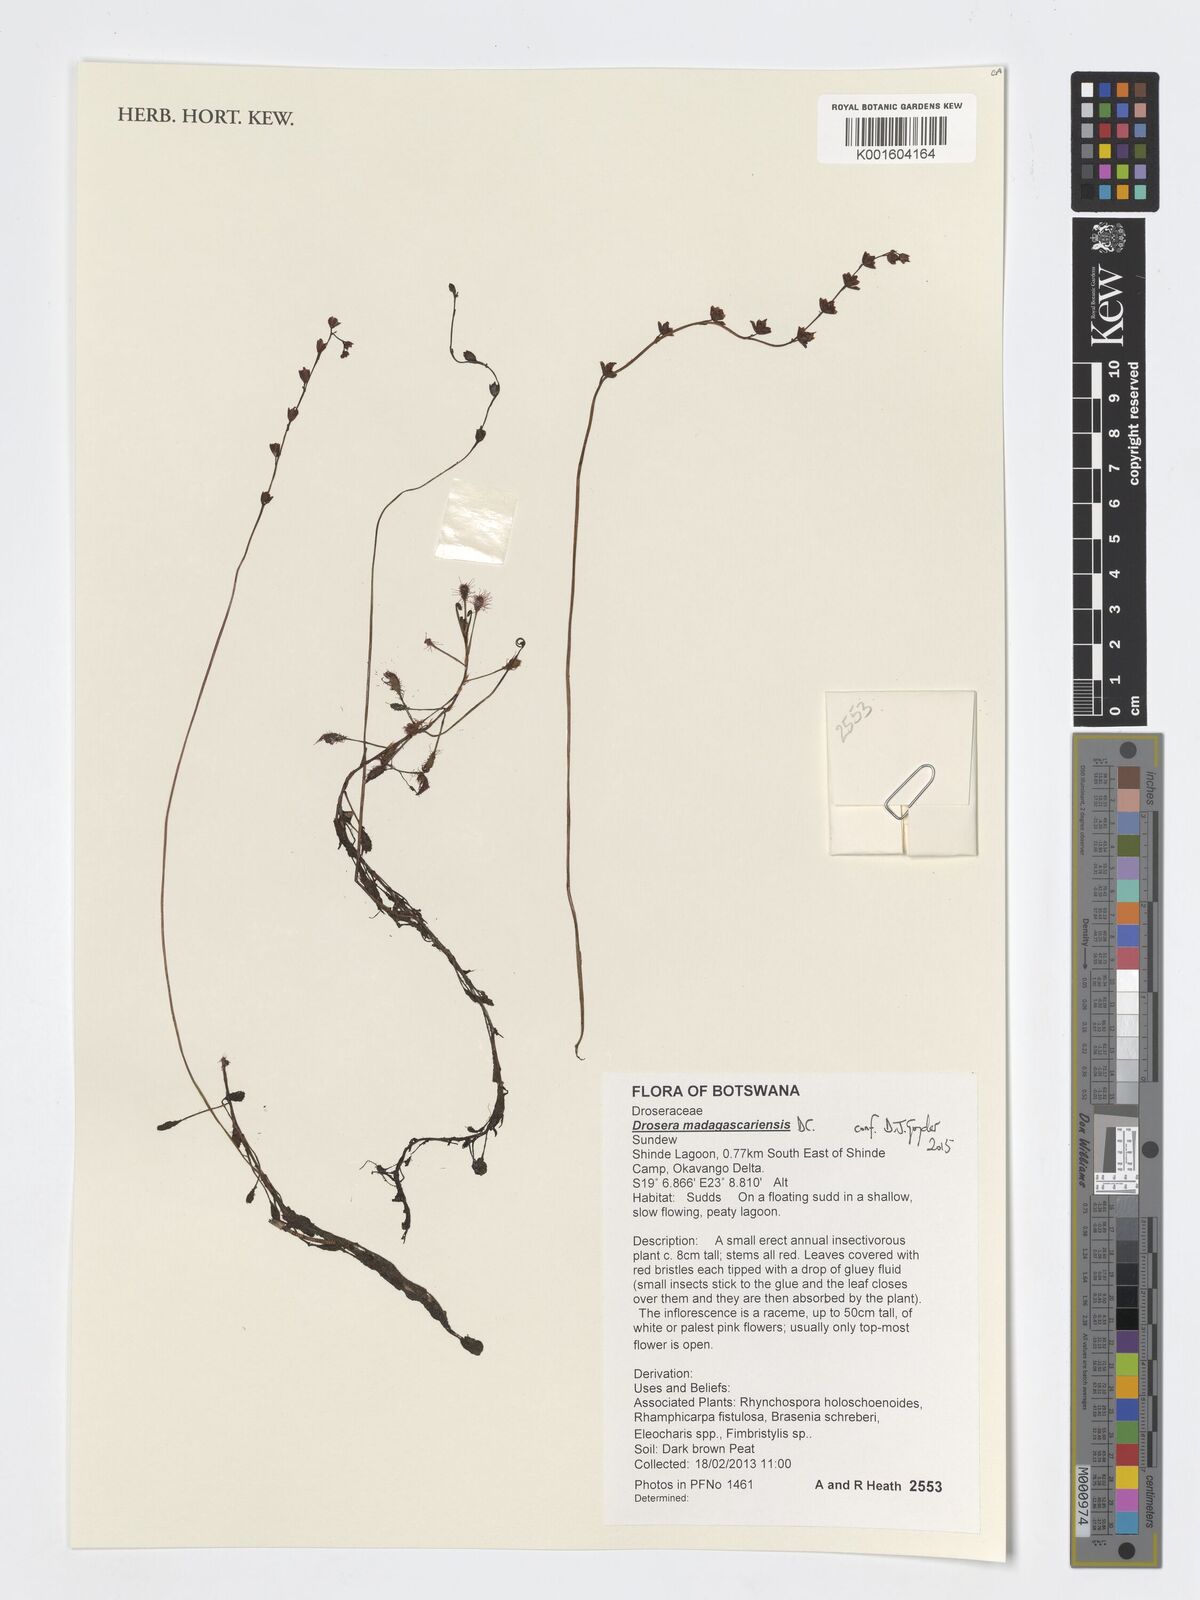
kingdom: Plantae
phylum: Tracheophyta
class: Magnoliopsida
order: Caryophyllales
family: Droseraceae
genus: Drosera
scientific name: Drosera madagascariensis
